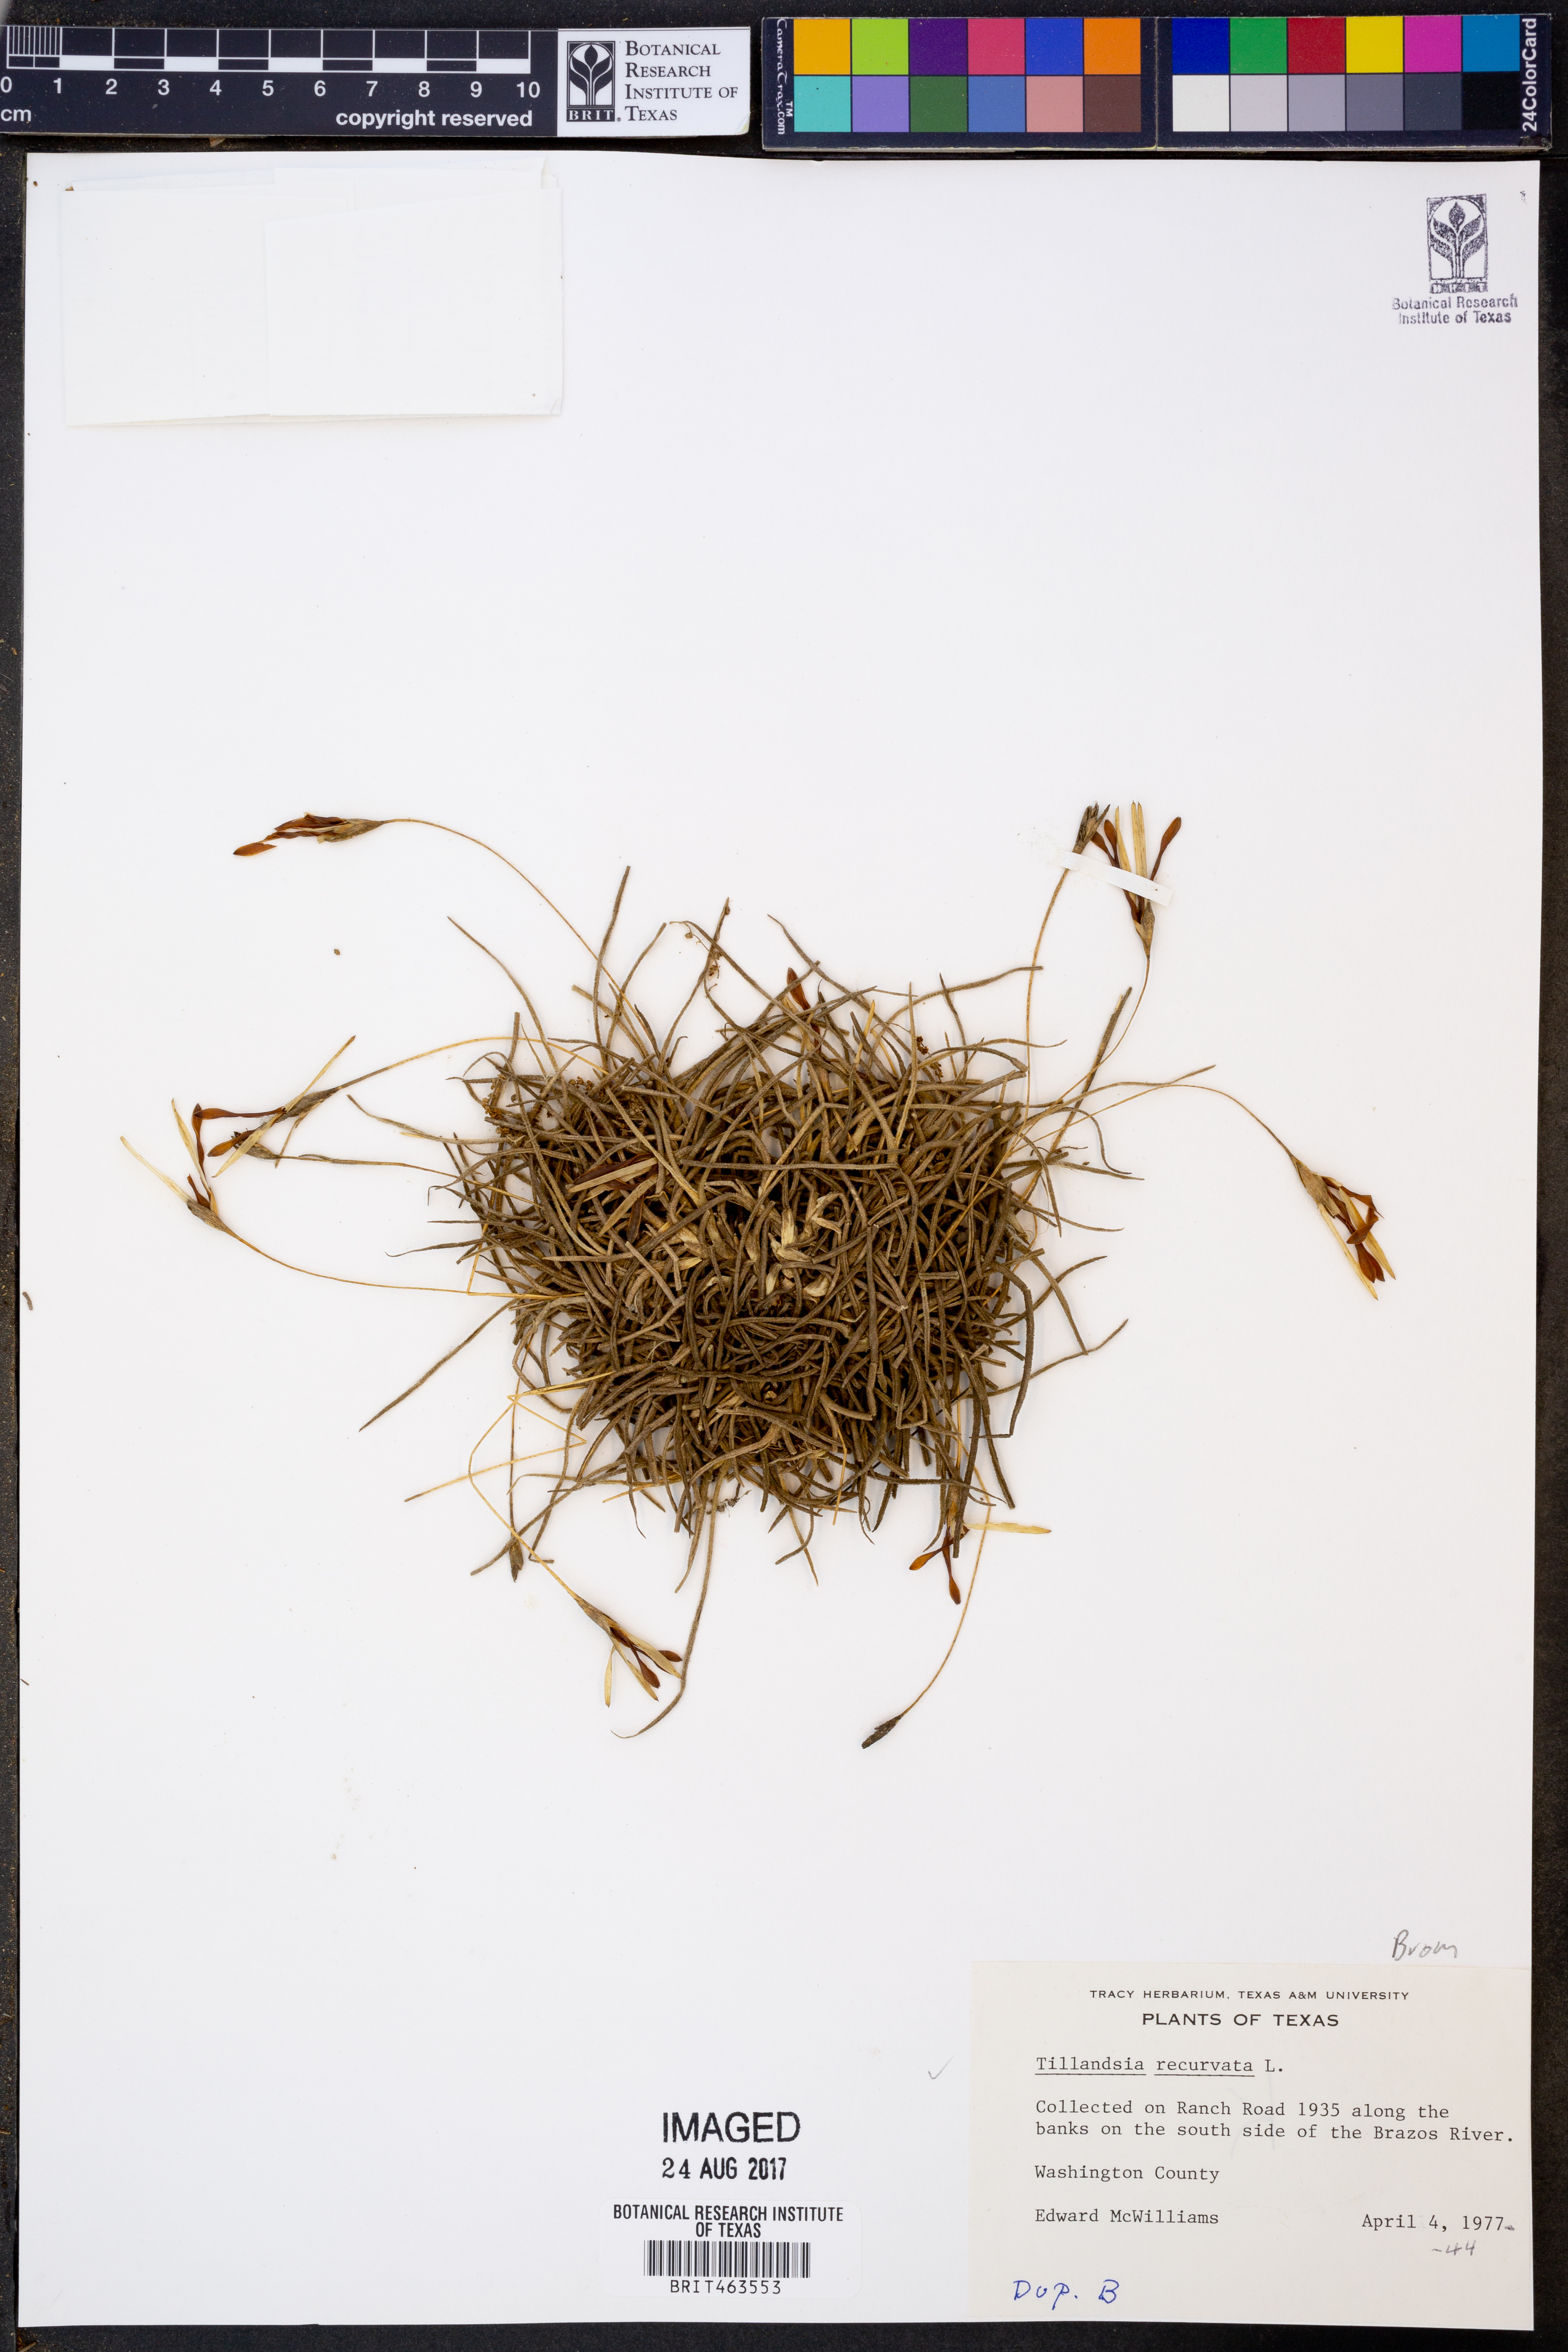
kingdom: Plantae
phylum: Tracheophyta
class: Liliopsida
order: Poales
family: Bromeliaceae
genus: Tillandsia
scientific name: Tillandsia recurvata
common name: Small ballmoss
